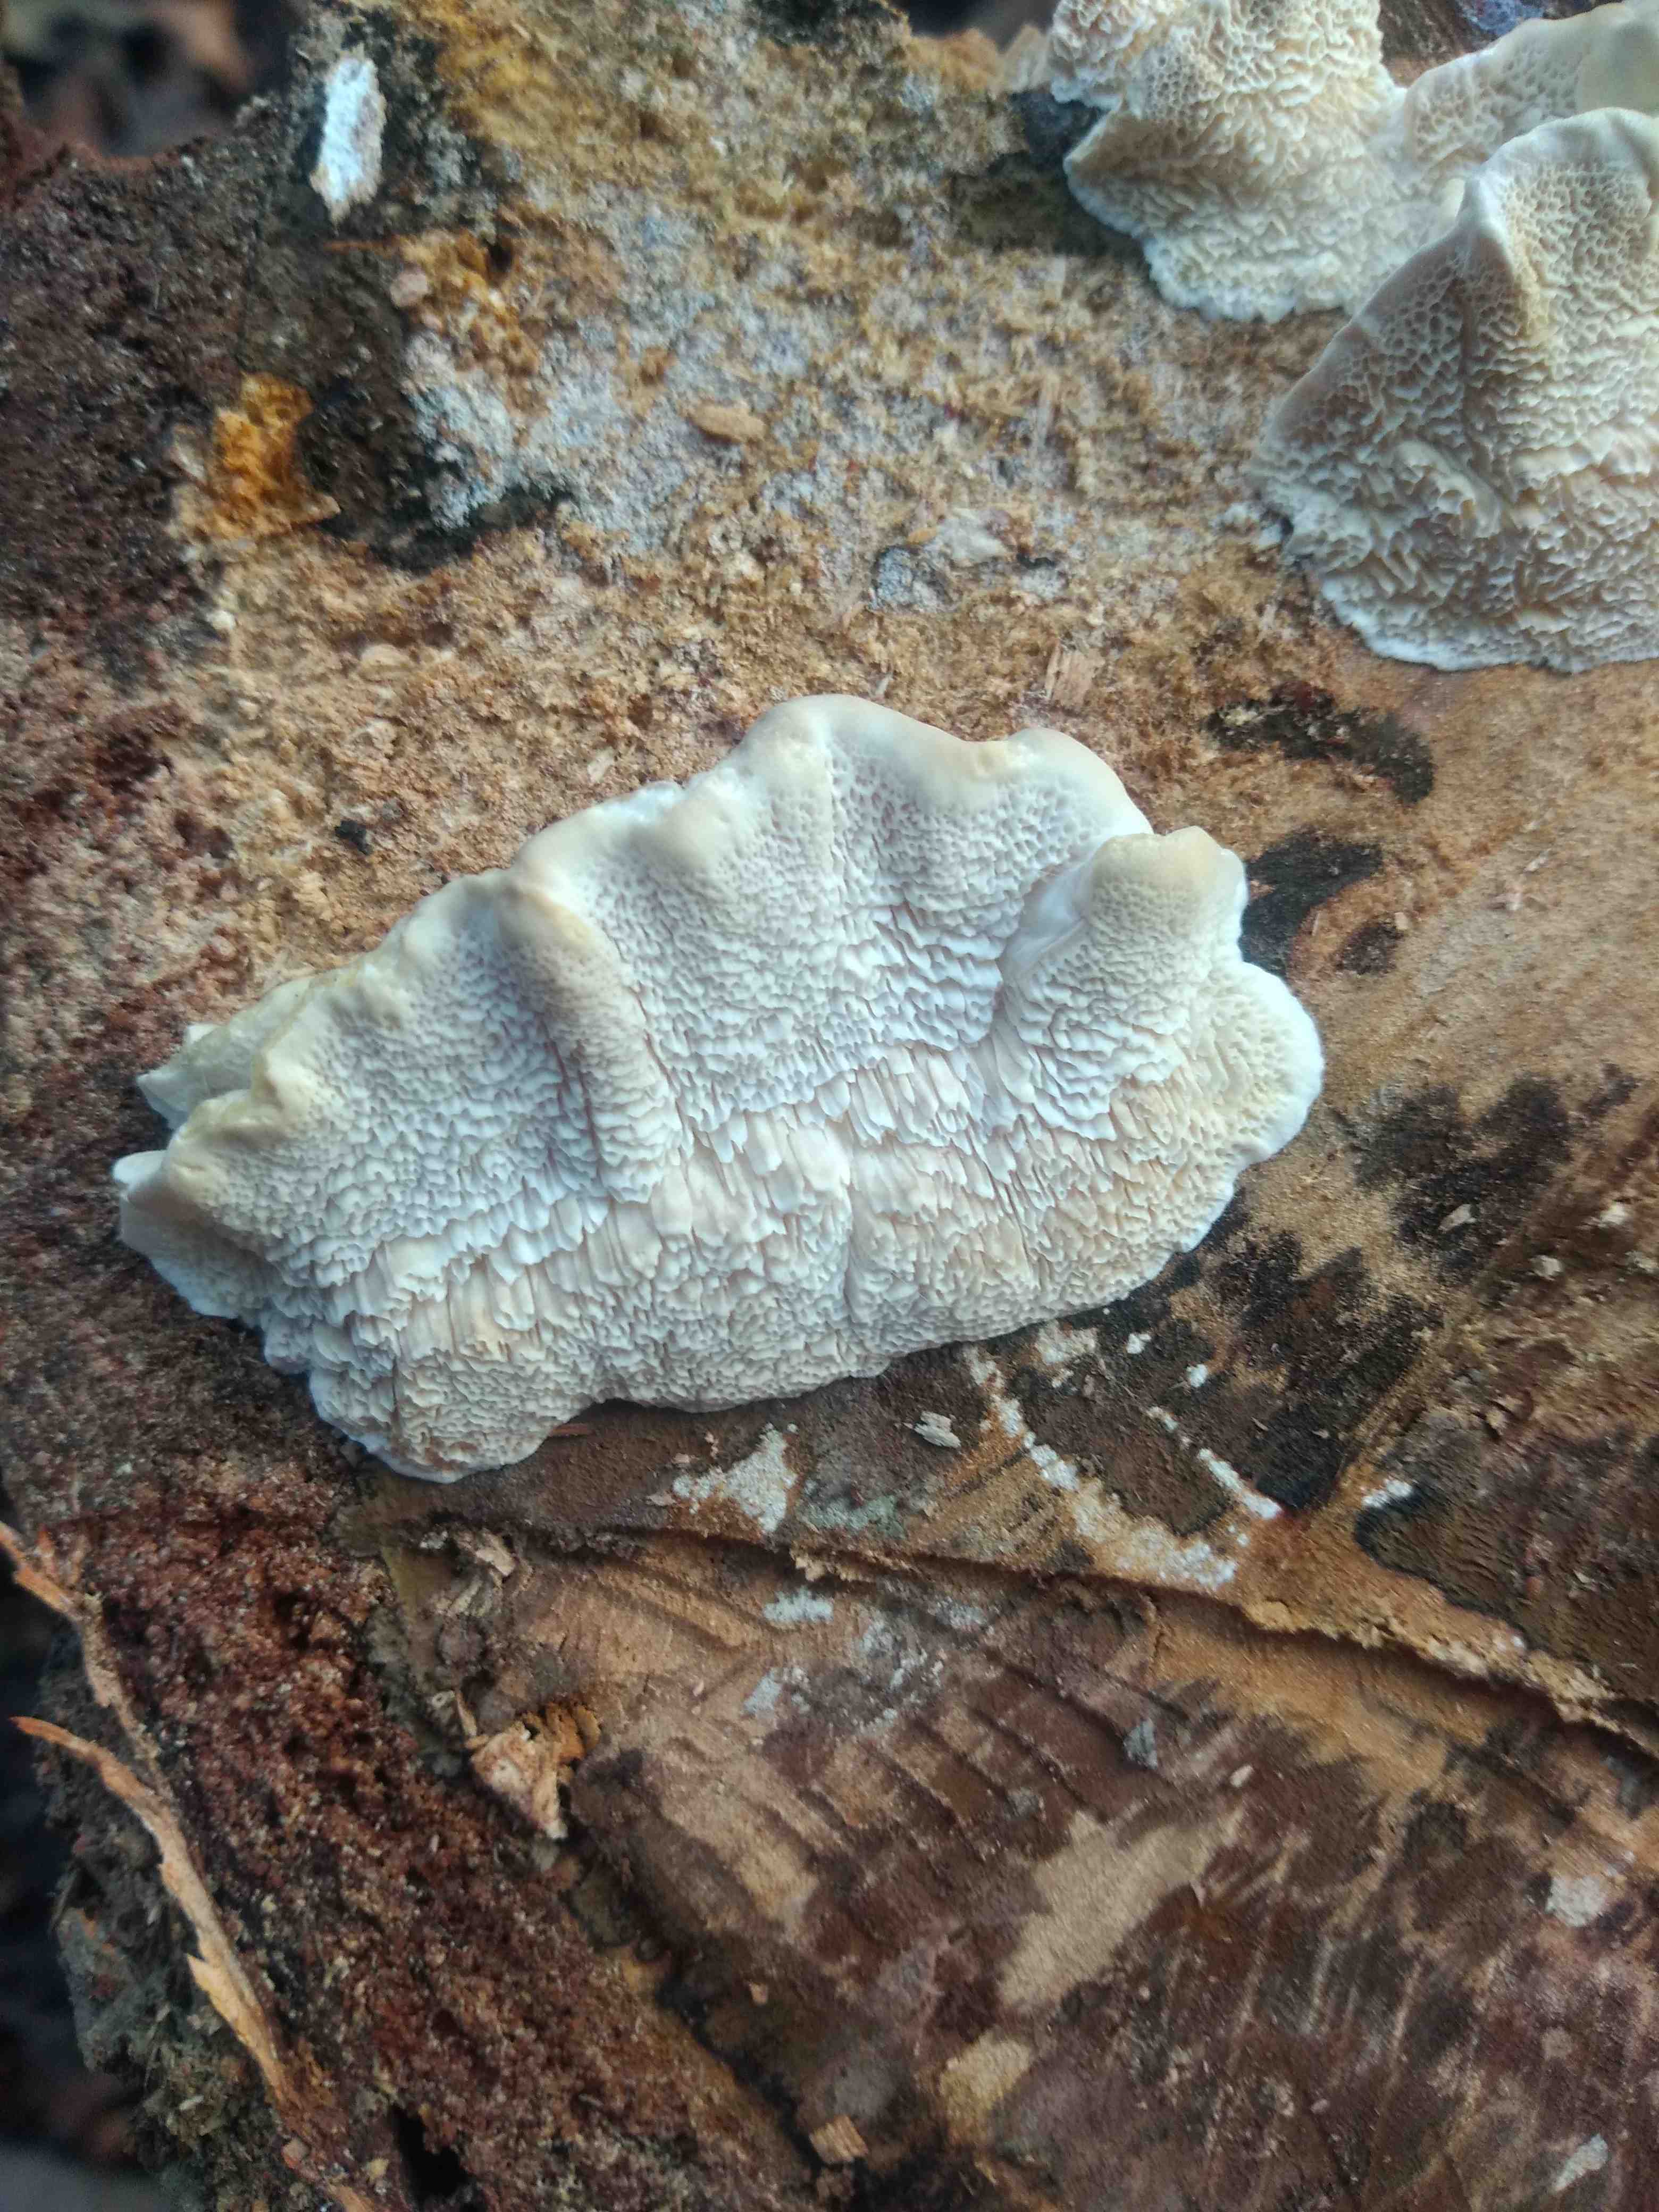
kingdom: Fungi
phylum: Basidiomycota
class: Agaricomycetes
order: Polyporales
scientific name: Polyporales
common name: poresvampordenen
